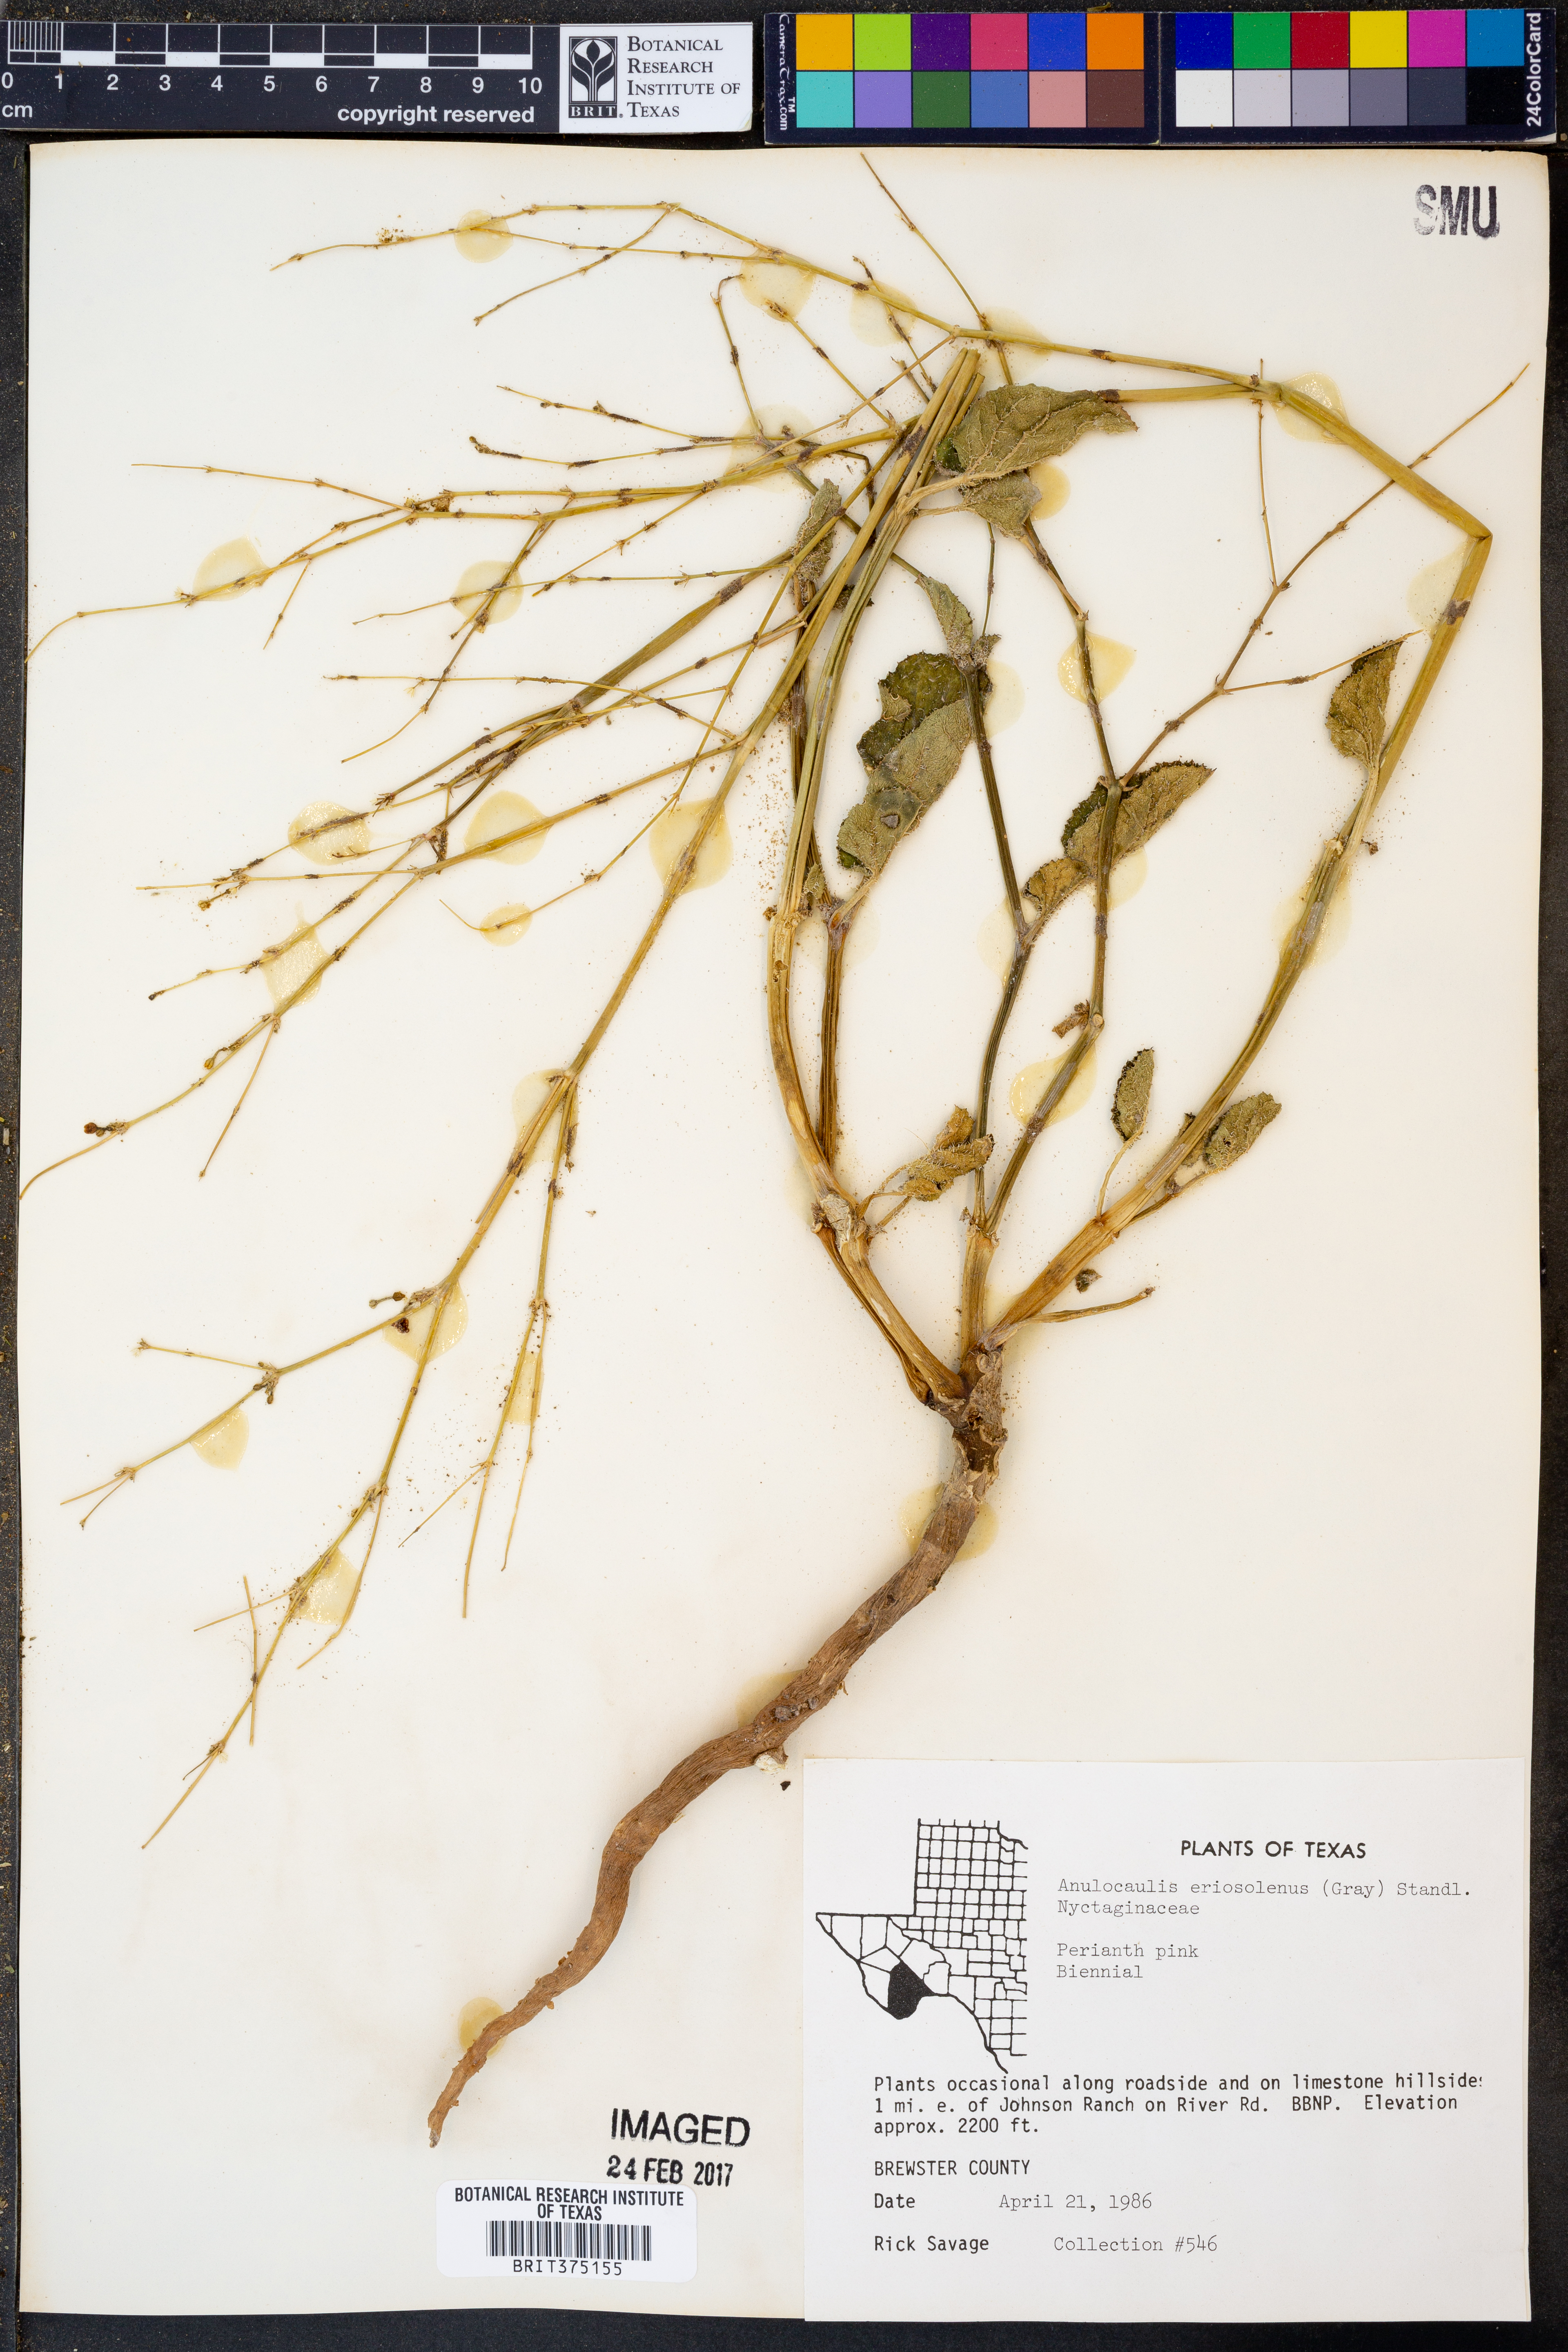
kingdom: Plantae
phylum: Tracheophyta
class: Magnoliopsida
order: Caryophyllales
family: Nyctaginaceae
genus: Anulocaulis
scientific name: Anulocaulis eriosolenus
